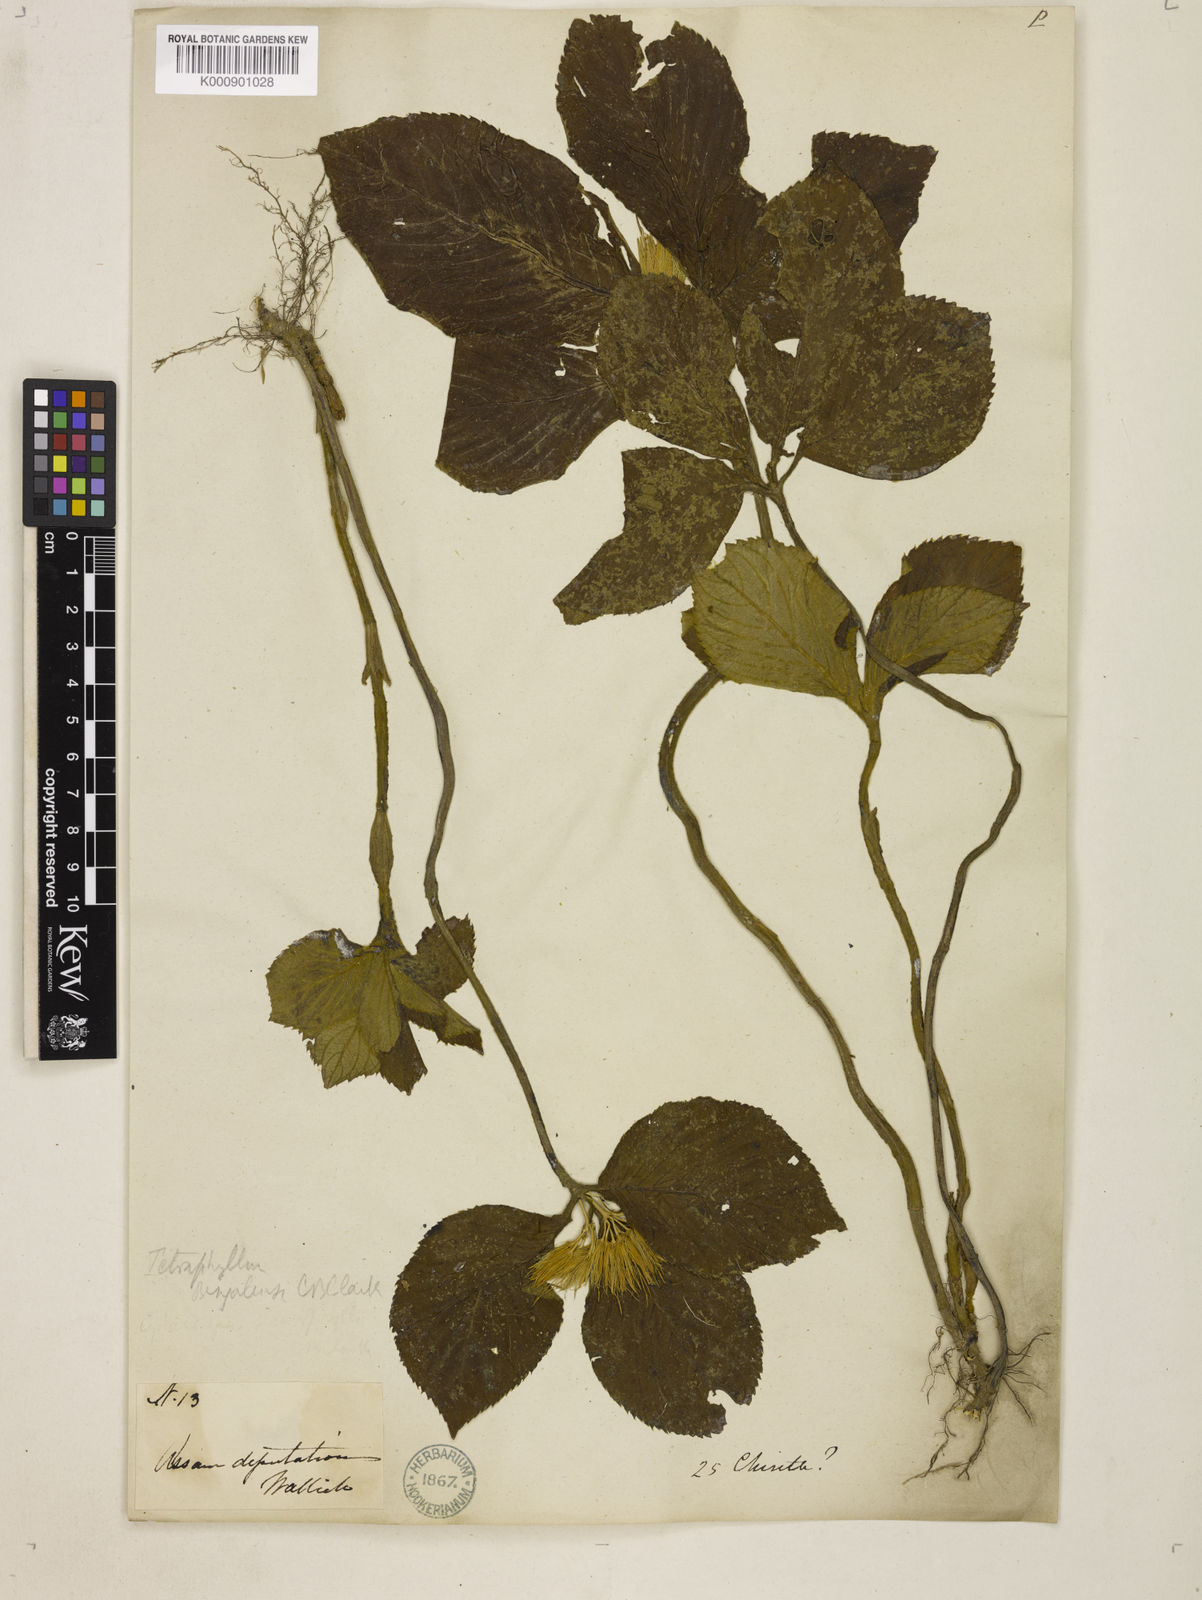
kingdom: Plantae
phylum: Tracheophyta
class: Magnoliopsida
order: Lamiales
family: Gesneriaceae
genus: Tetraphylloides
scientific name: Tetraphylloides bengalensis
